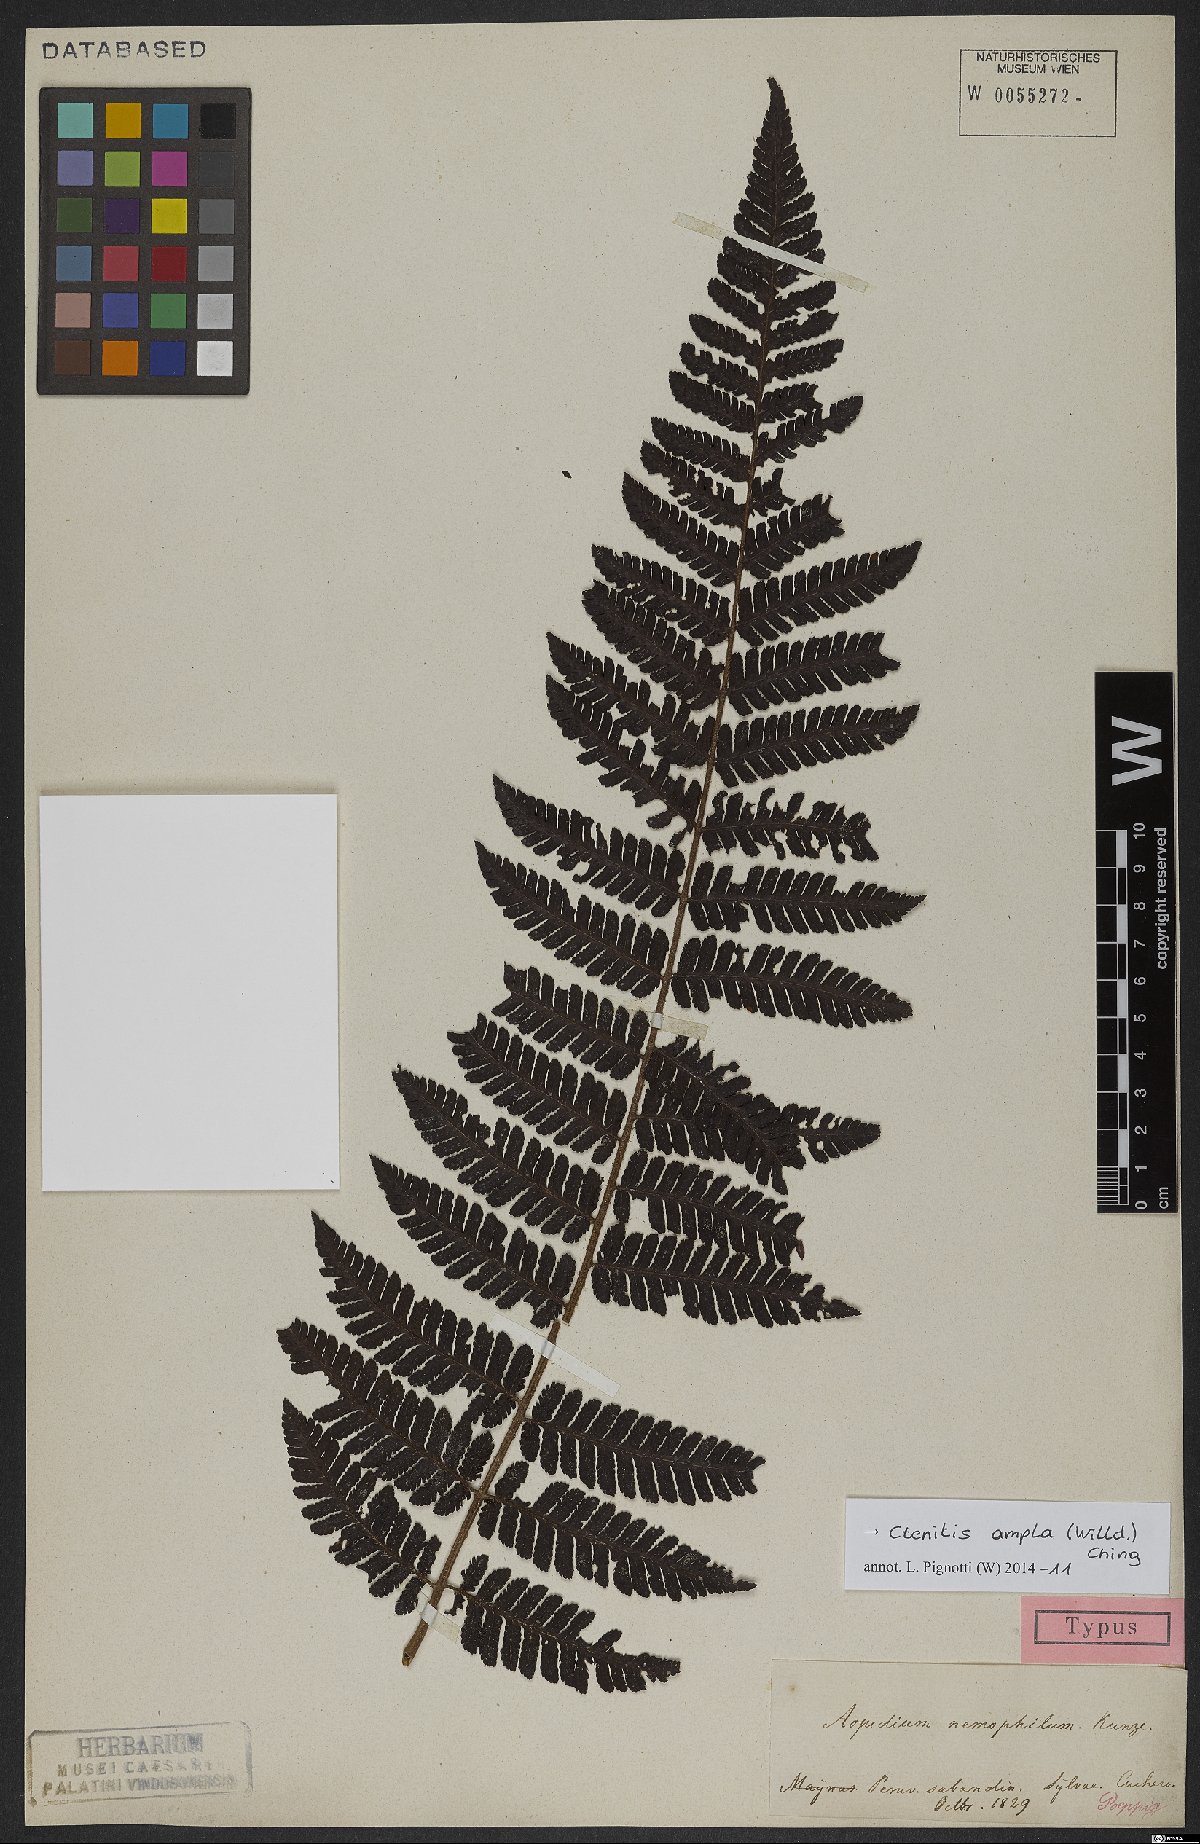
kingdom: Plantae
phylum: Tracheophyta
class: Polypodiopsida
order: Polypodiales
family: Dryopteridaceae
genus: Ctenitis
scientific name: Ctenitis sloanei
